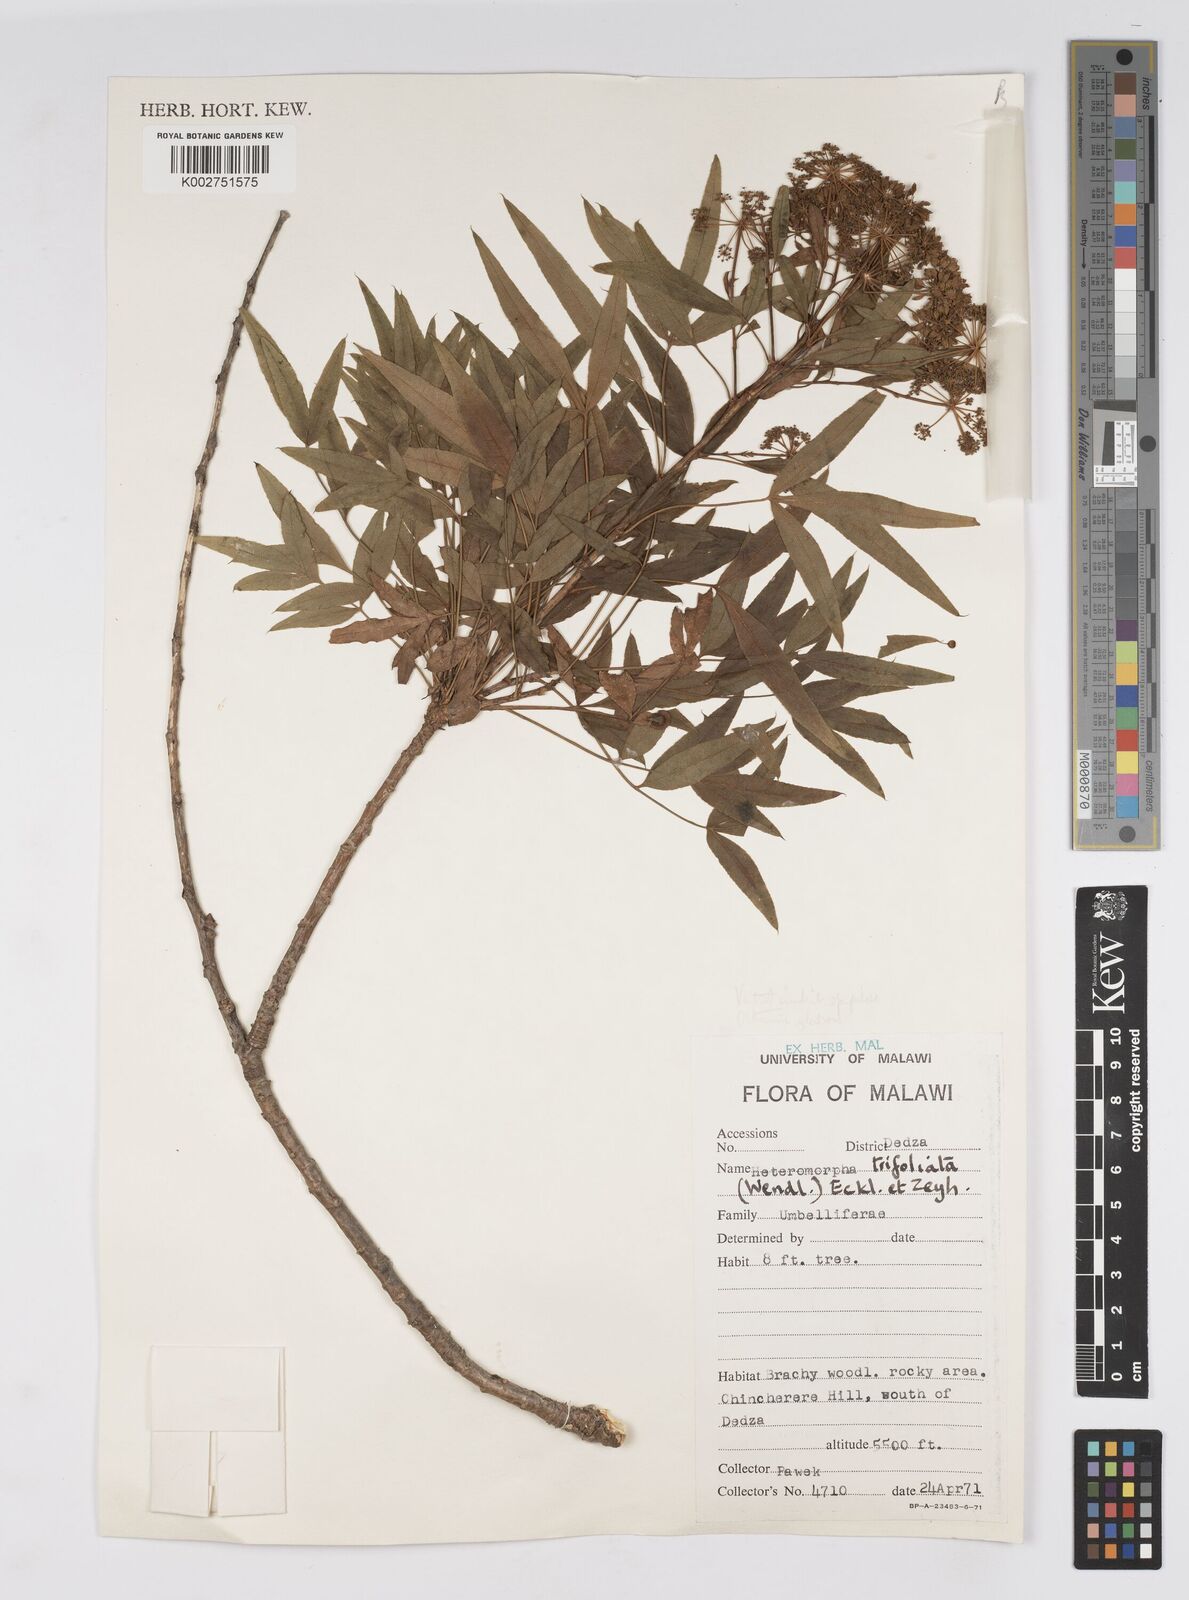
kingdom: Plantae
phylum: Tracheophyta
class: Magnoliopsida
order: Apiales
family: Apiaceae
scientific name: Apiaceae
